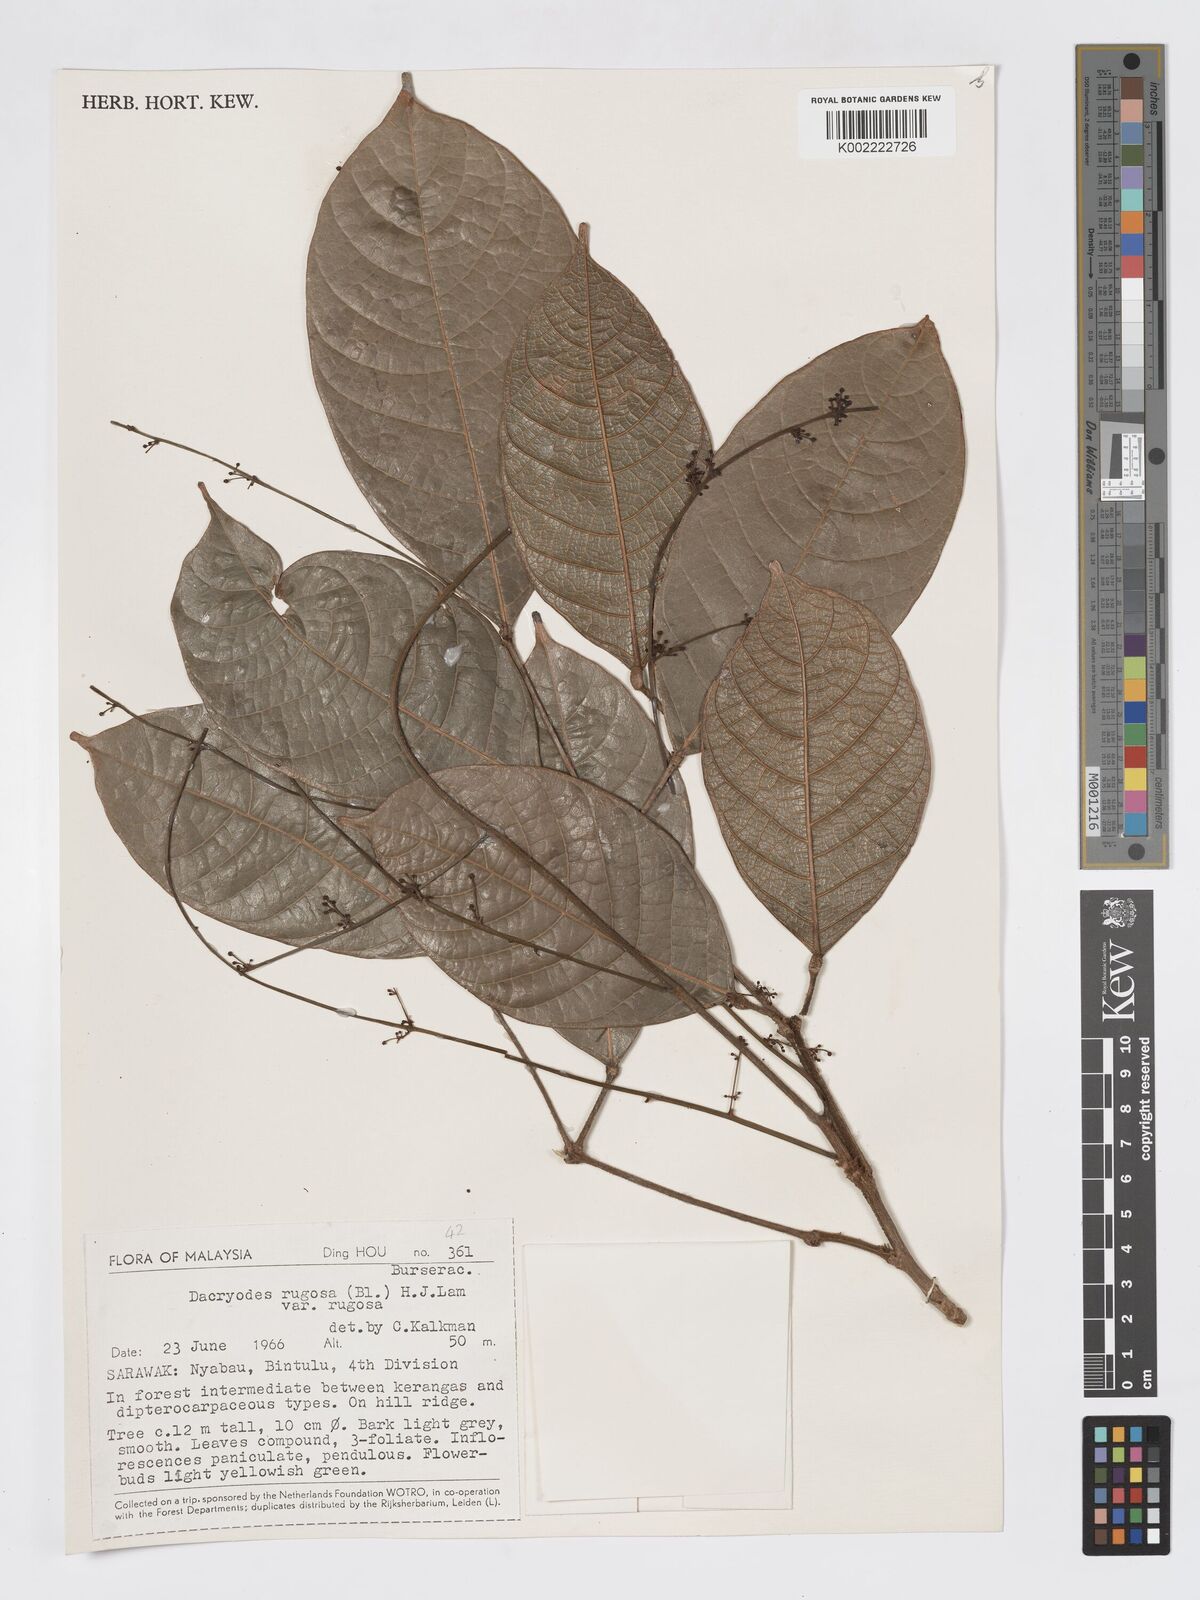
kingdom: Plantae
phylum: Tracheophyta
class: Magnoliopsida
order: Sapindales
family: Burseraceae
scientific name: Burseraceae
